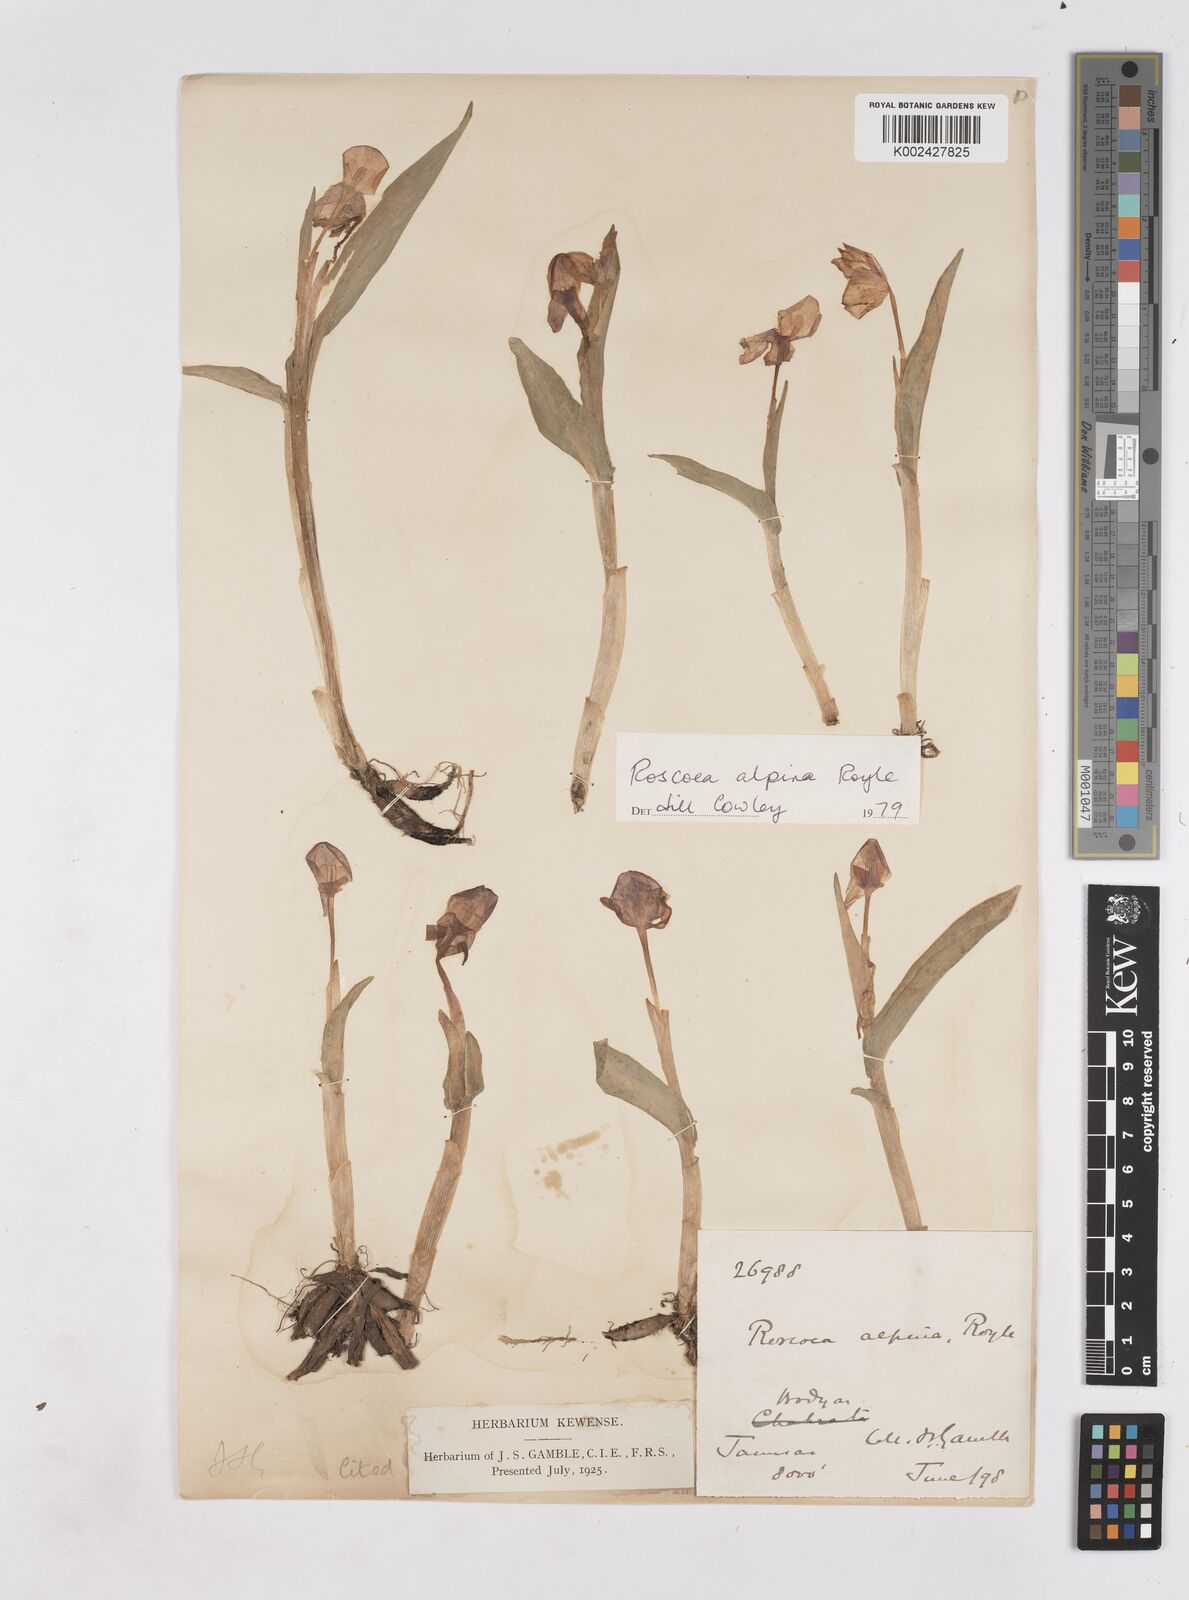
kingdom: Plantae
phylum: Tracheophyta
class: Liliopsida
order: Zingiberales
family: Zingiberaceae
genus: Roscoea
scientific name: Roscoea alpina
